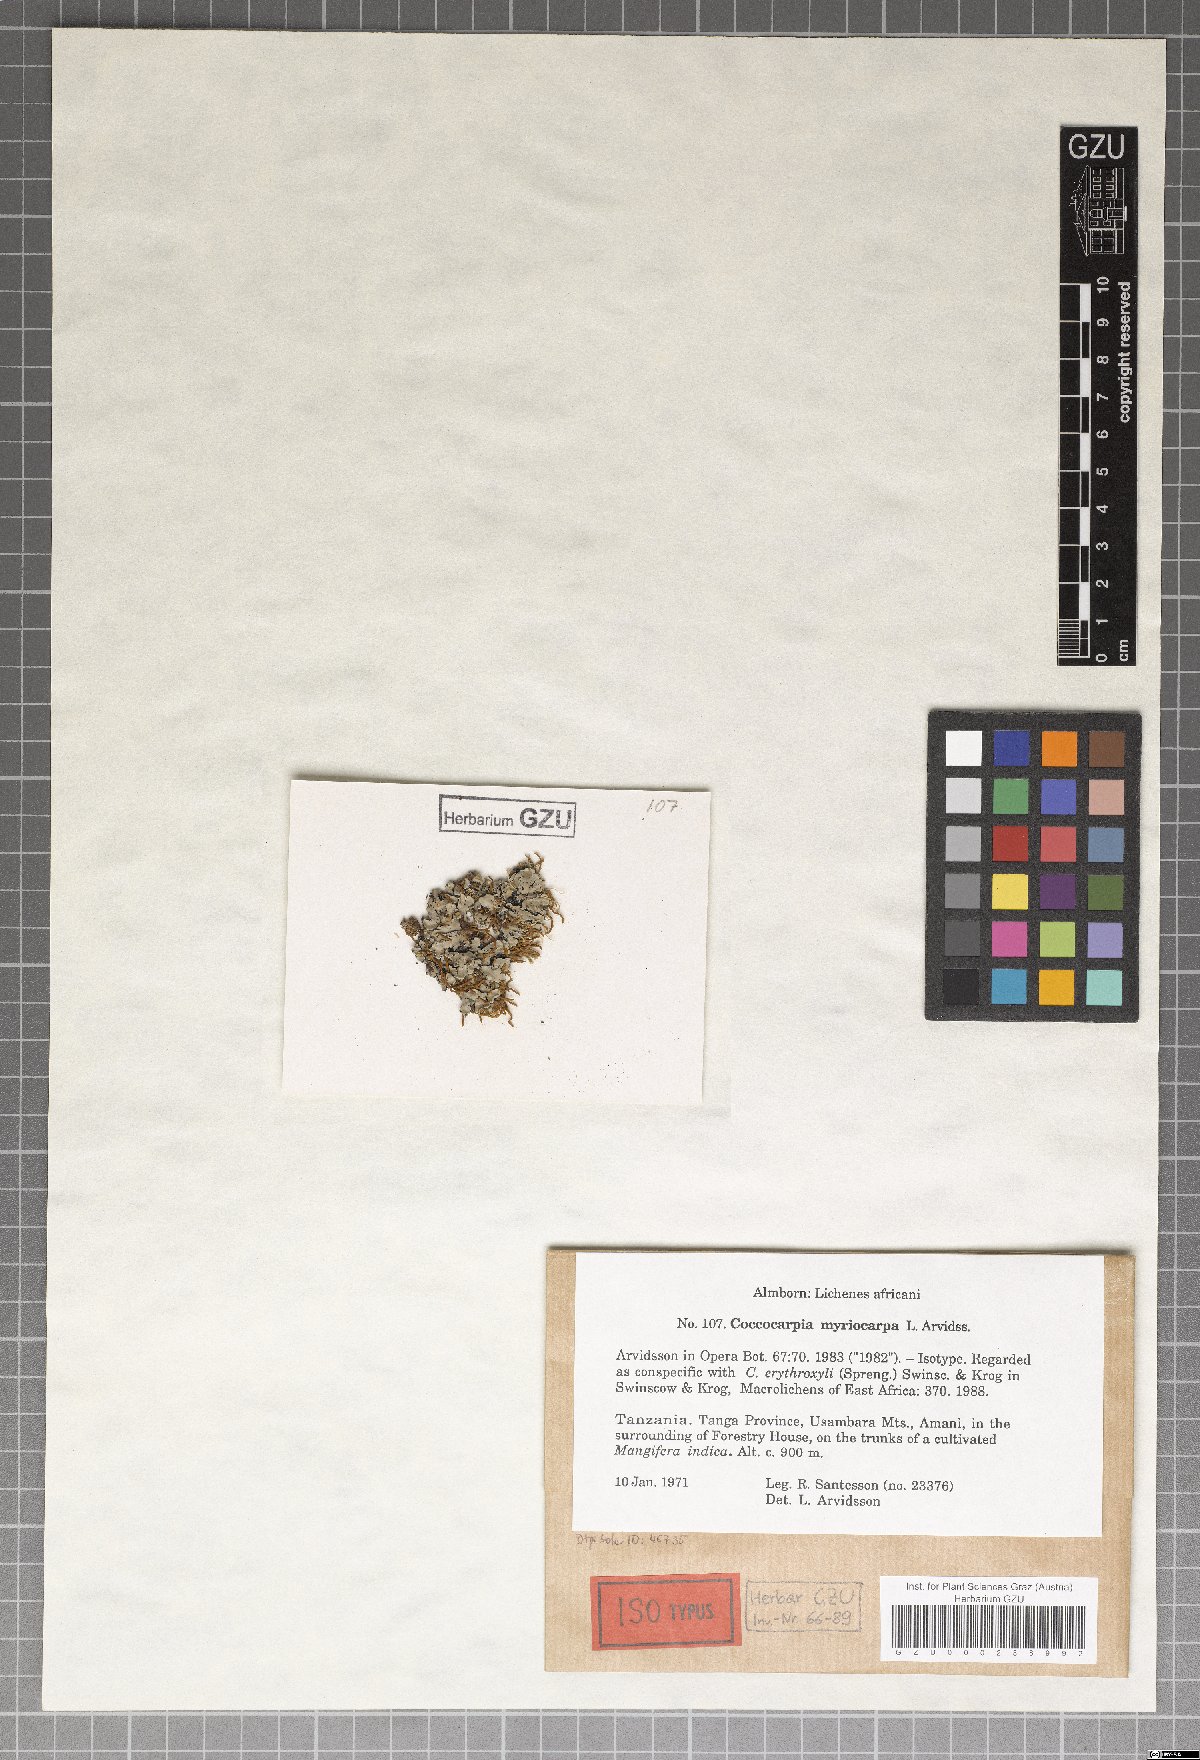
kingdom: Fungi
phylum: Ascomycota
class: Lecanoromycetes
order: Peltigerales
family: Coccocarpiaceae
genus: Coccocarpia
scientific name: Coccocarpia erythroxyli
